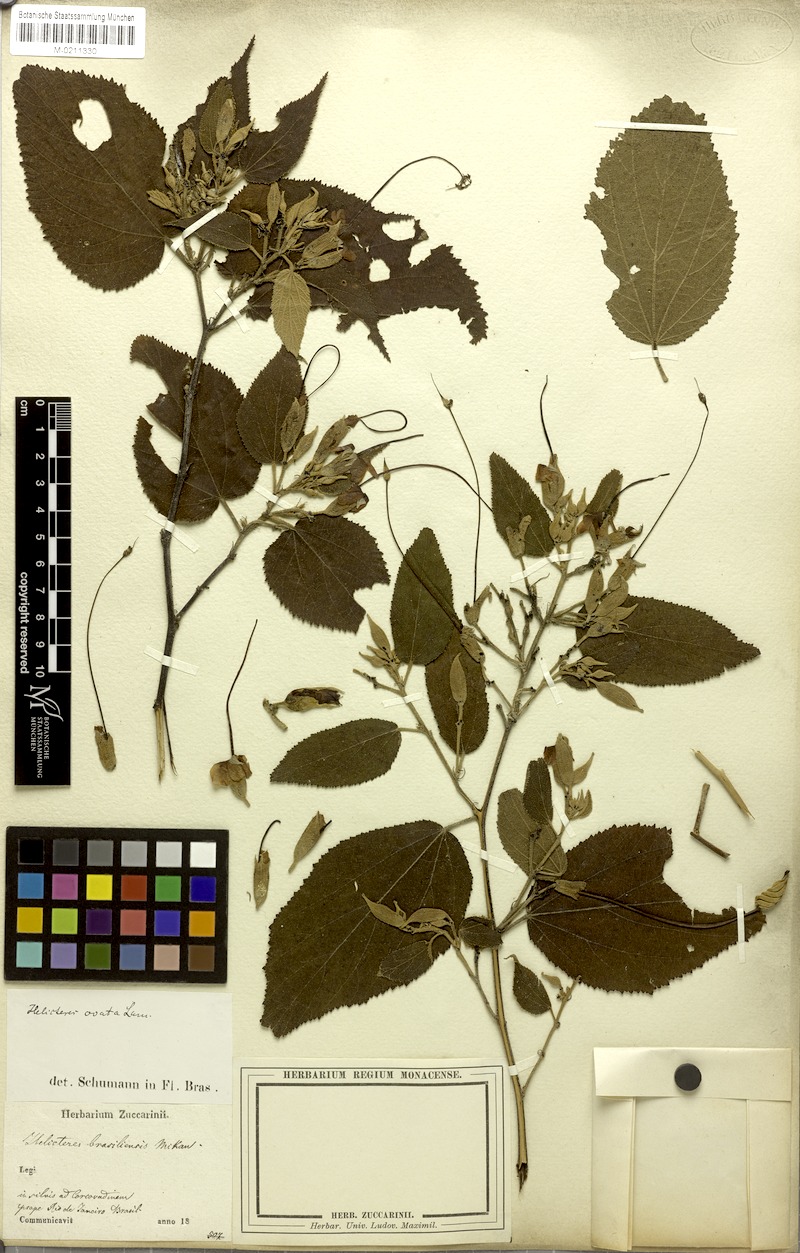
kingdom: Plantae
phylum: Tracheophyta
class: Magnoliopsida
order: Malvales
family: Malvaceae
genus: Helicteres
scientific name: Helicteres ovata
